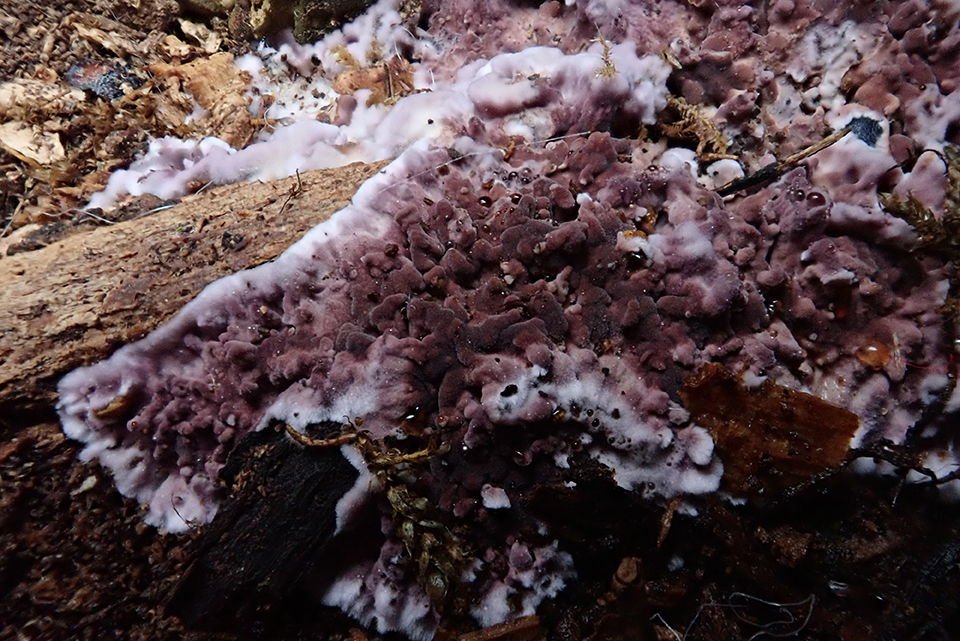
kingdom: Fungi
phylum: Basidiomycota
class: Agaricomycetes
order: Agaricales
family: Cyphellaceae
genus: Chondrostereum
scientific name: Chondrostereum purpureum
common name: purpurlædersvamp
